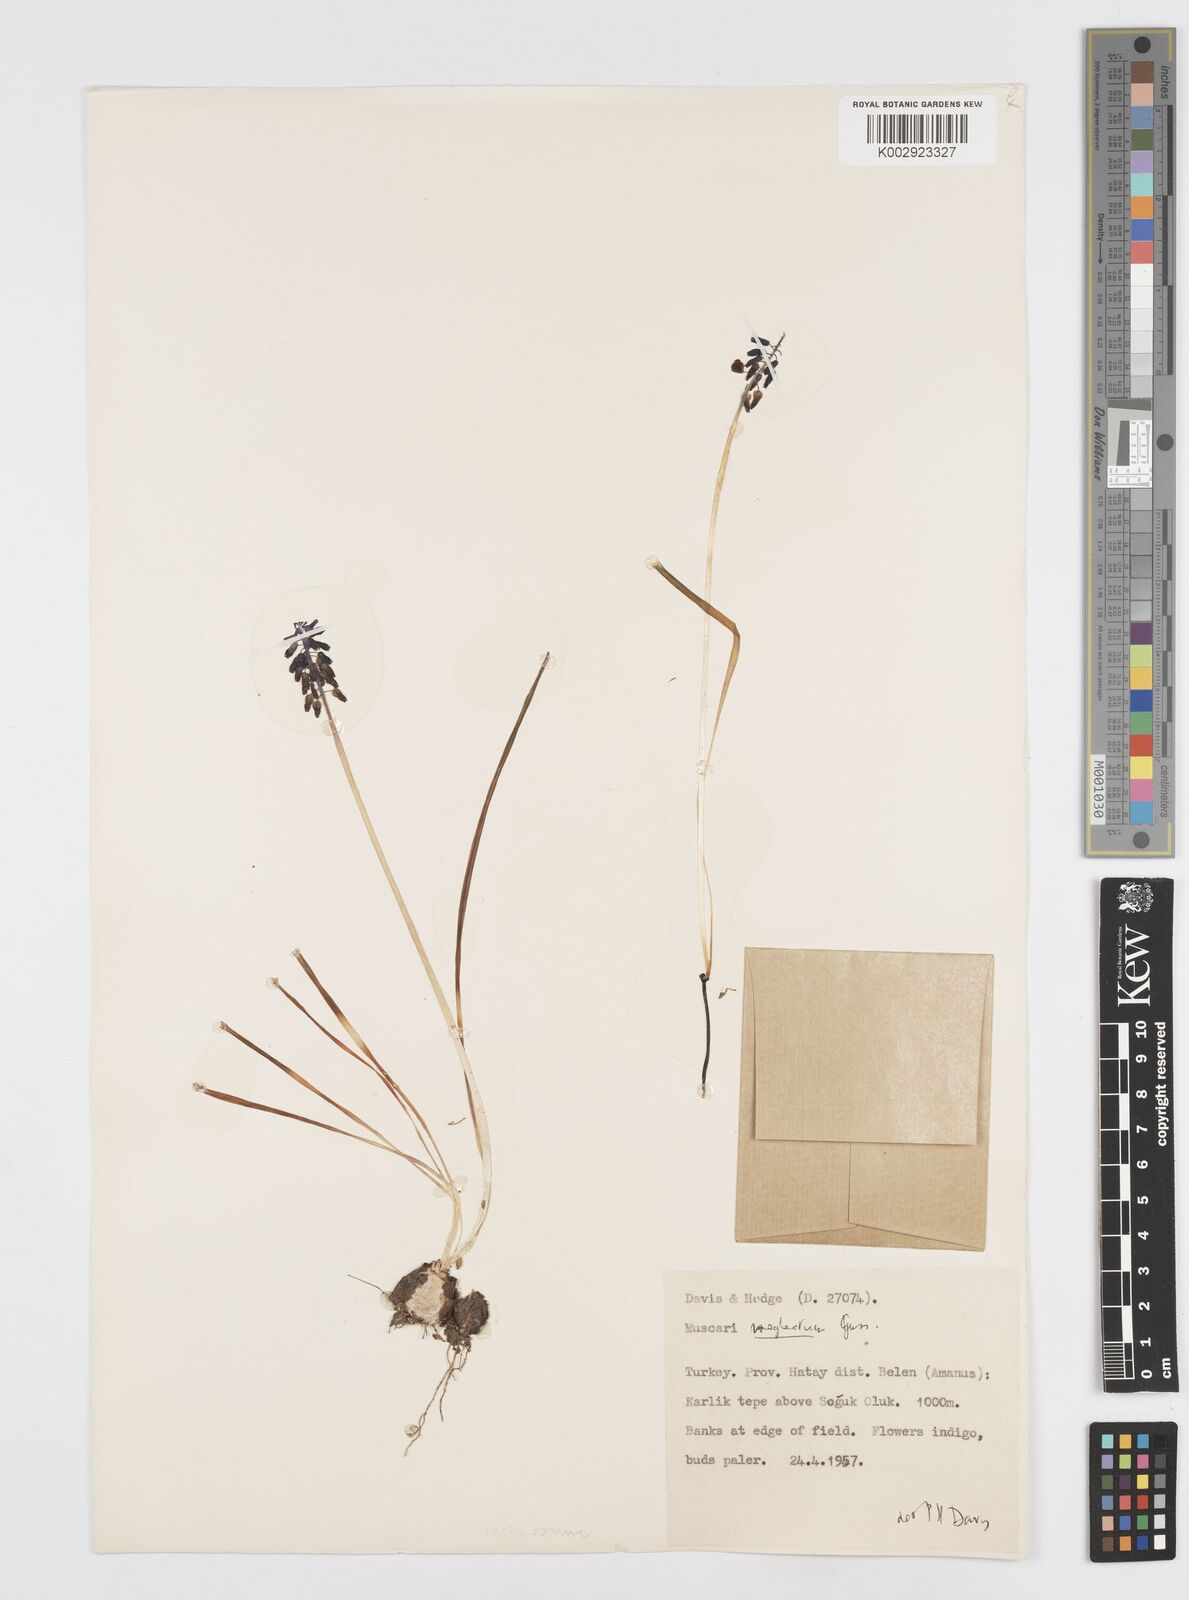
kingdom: Plantae
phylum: Tracheophyta
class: Liliopsida
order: Asparagales
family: Asparagaceae
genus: Muscari
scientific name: Muscari neglectum
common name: Grape-hyacinth
